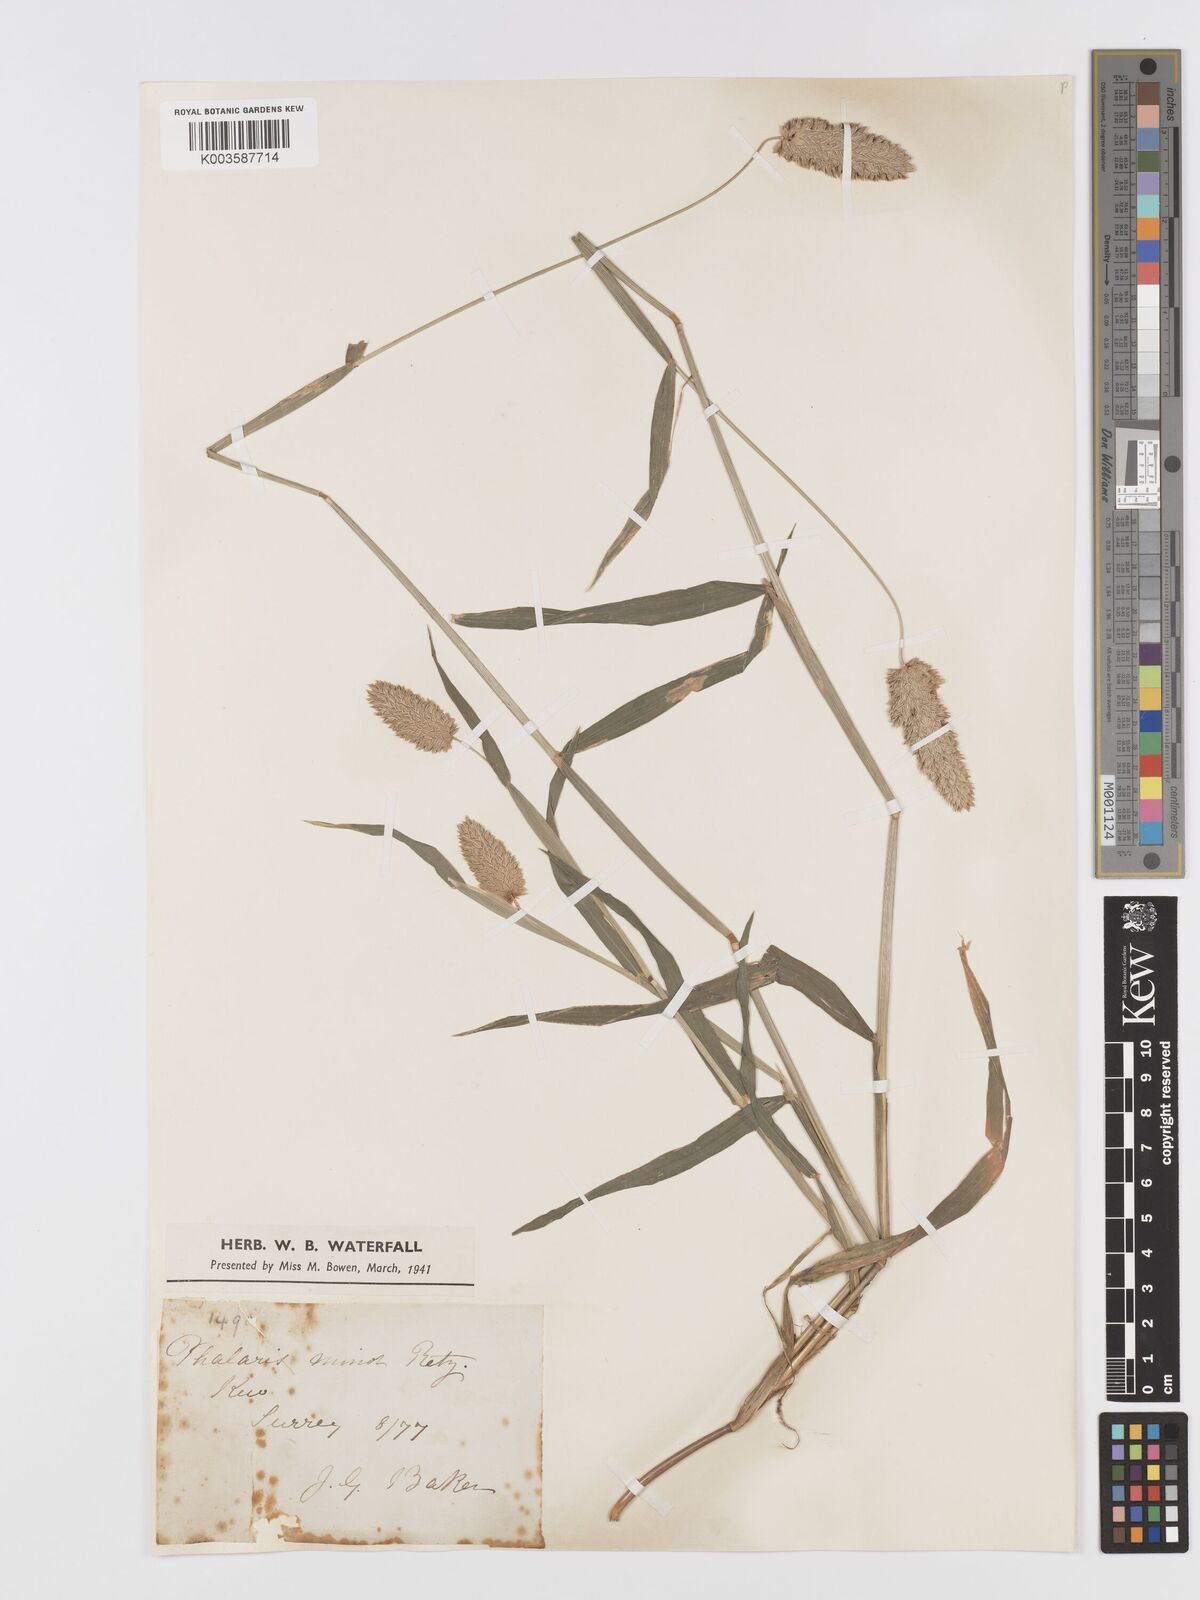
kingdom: Plantae
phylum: Tracheophyta
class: Liliopsida
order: Poales
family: Poaceae
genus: Phalaris
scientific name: Phalaris minor
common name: Littleseed canarygrass
